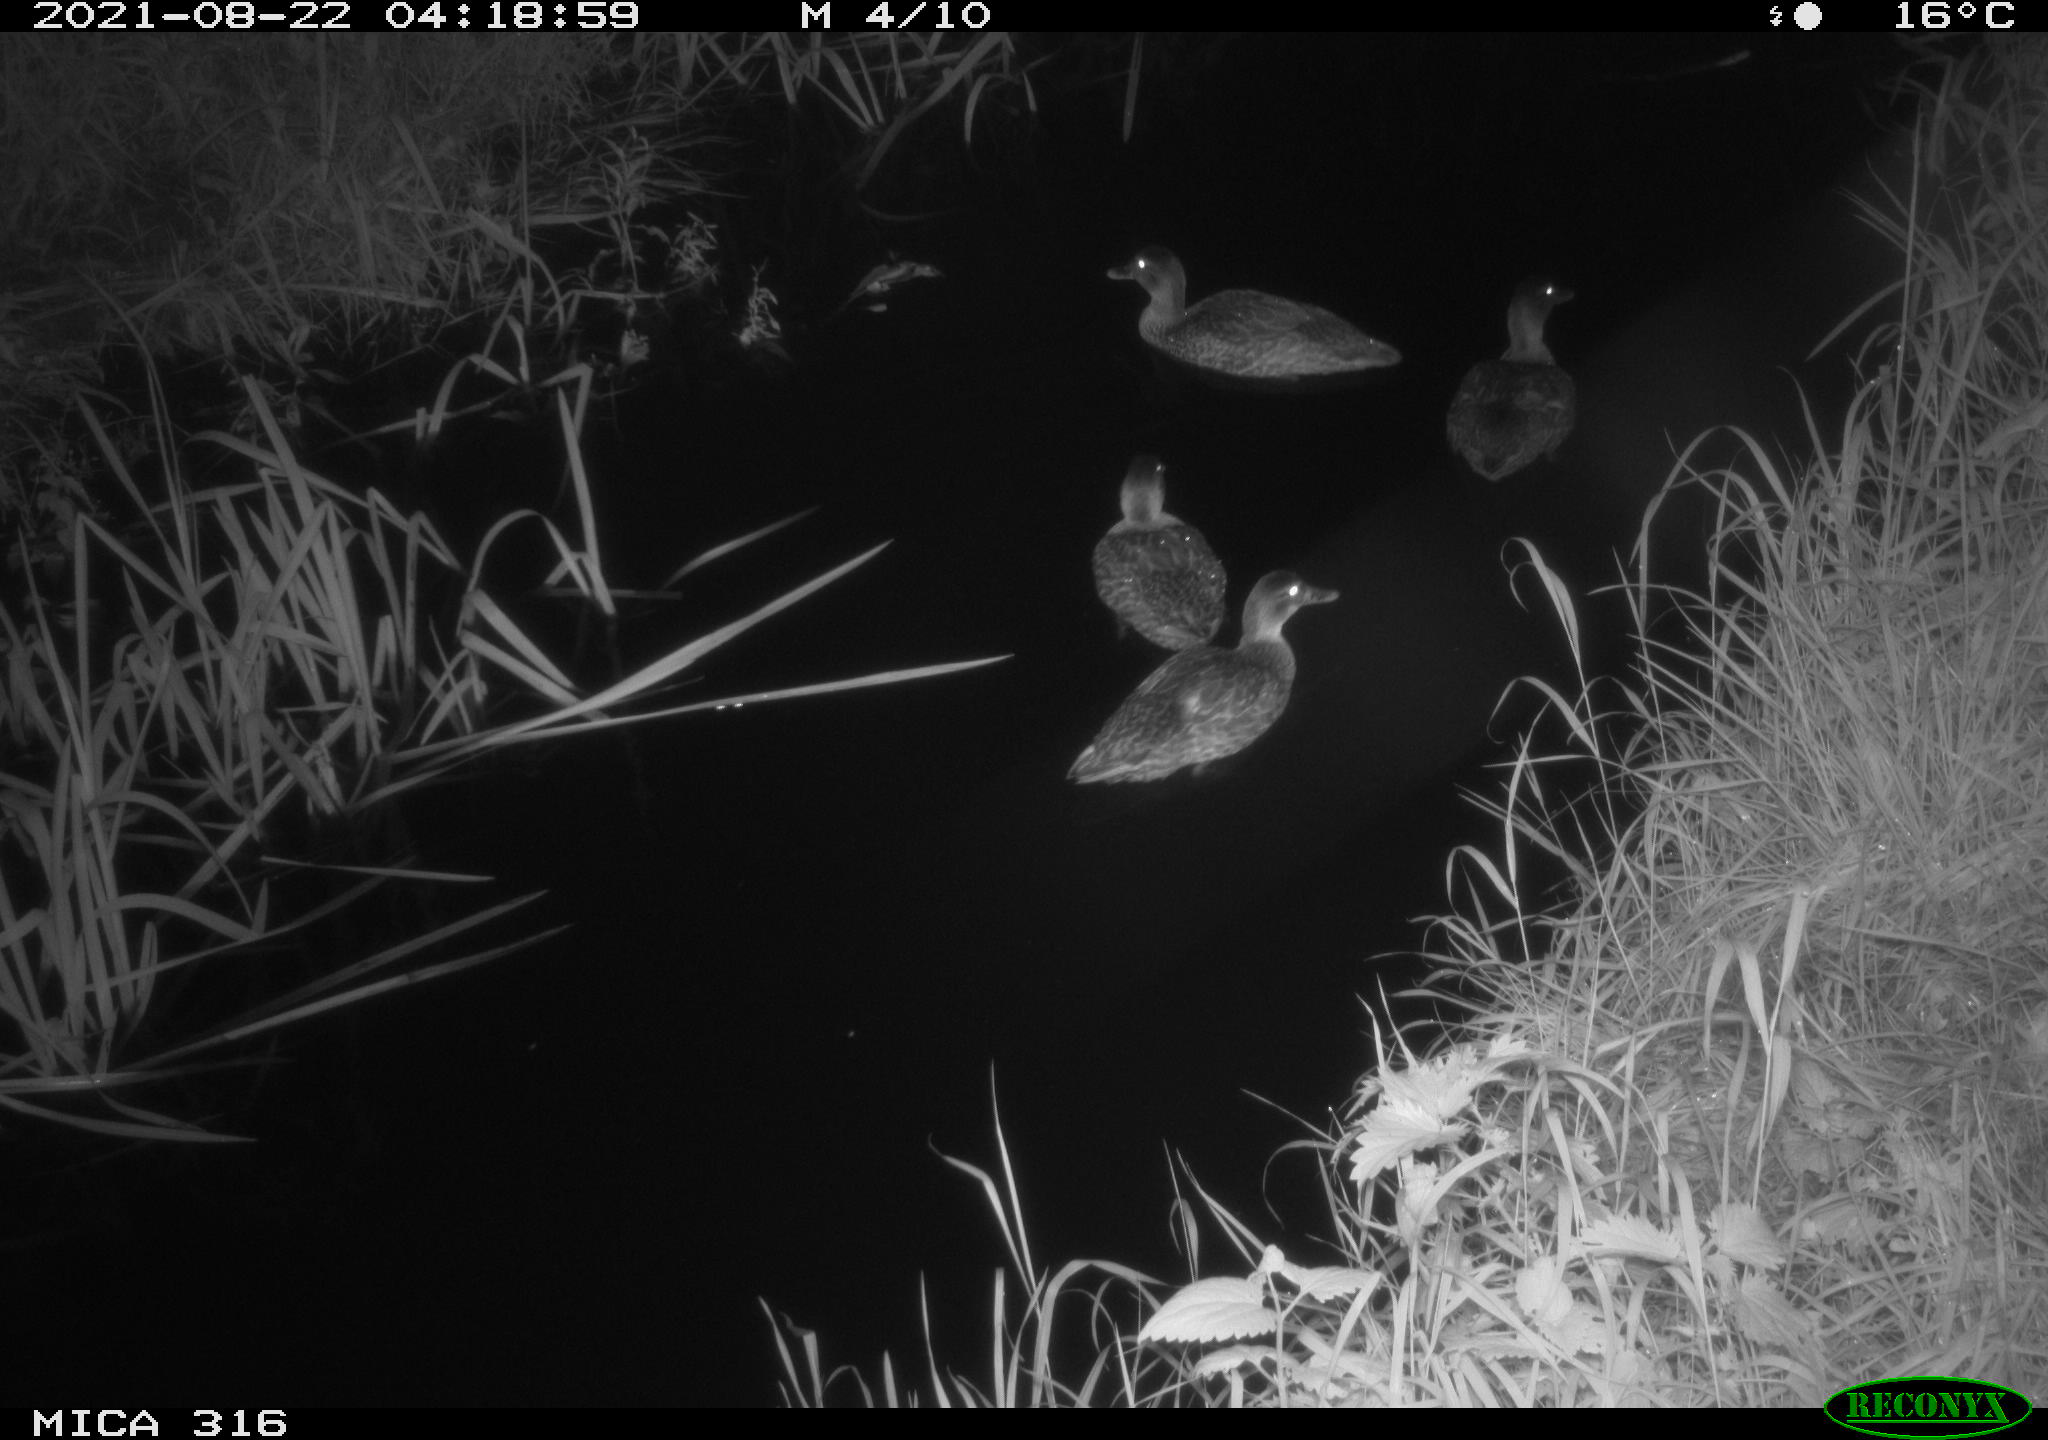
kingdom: Animalia
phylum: Chordata
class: Aves
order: Anseriformes
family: Anatidae
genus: Anas
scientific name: Anas platyrhynchos
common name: Mallard
